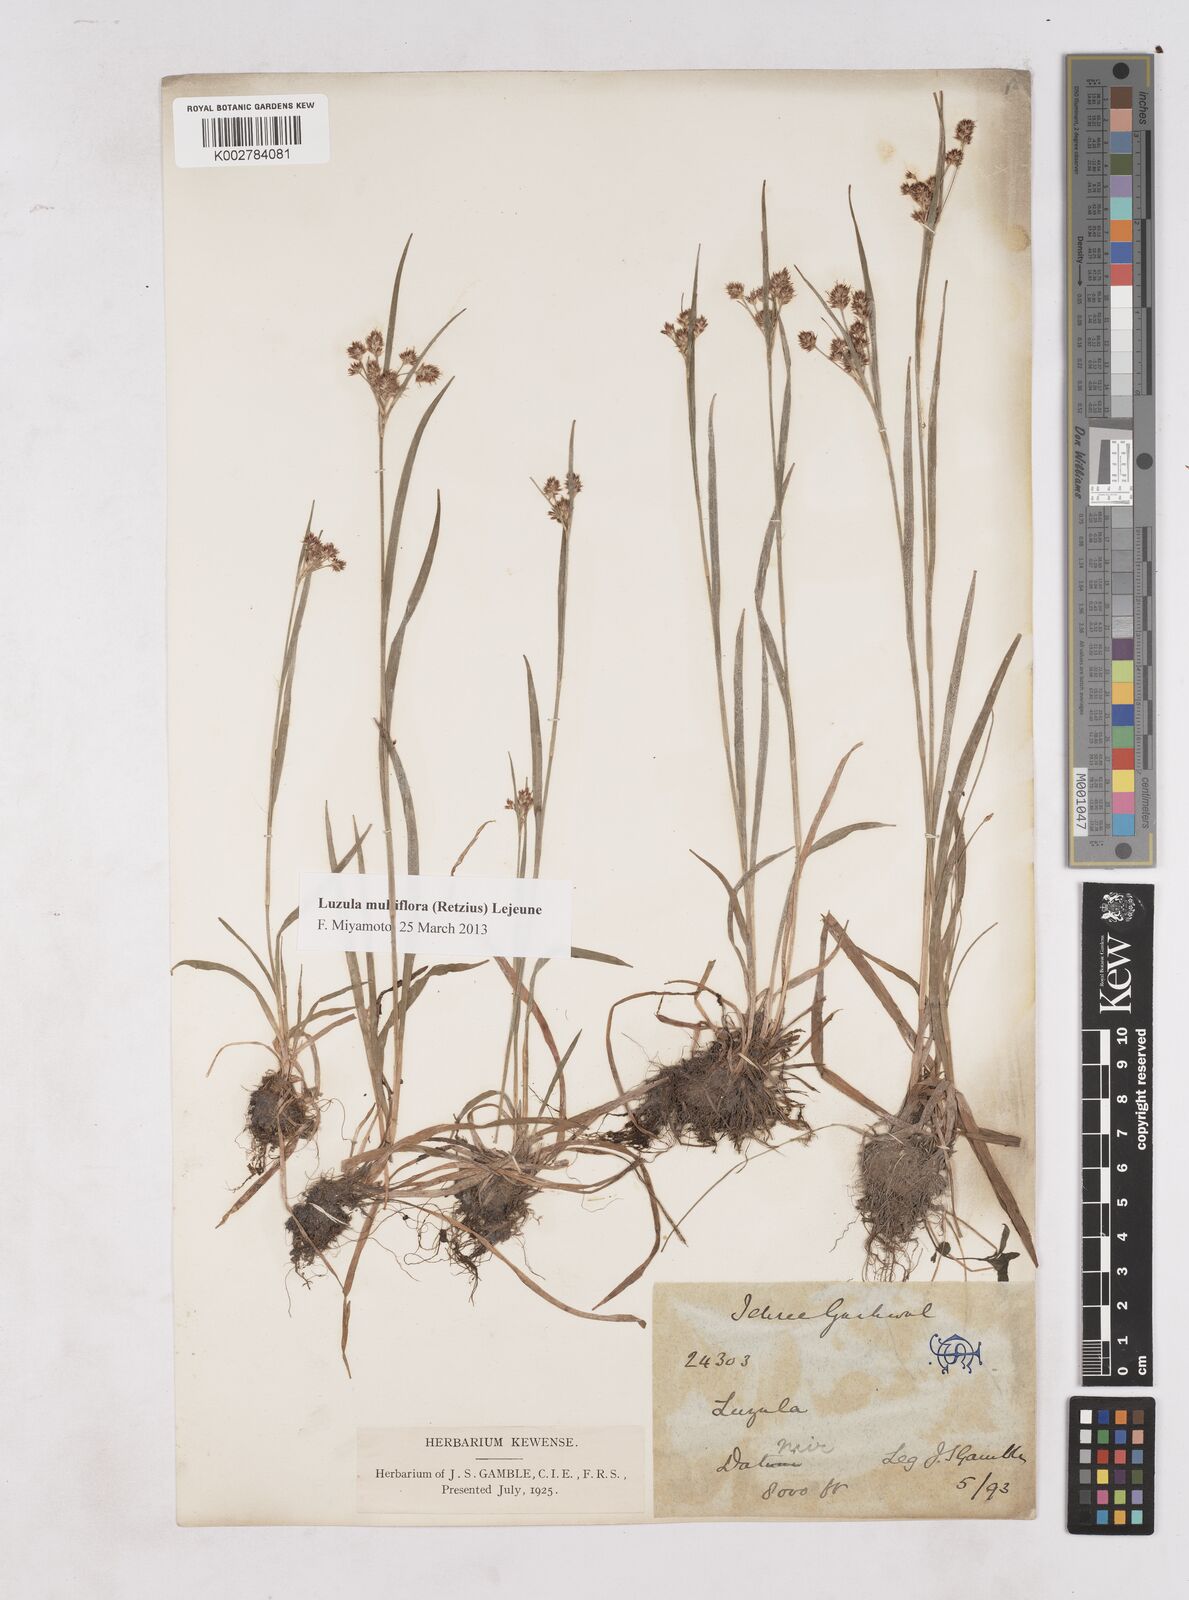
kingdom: Plantae
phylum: Tracheophyta
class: Liliopsida
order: Poales
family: Juncaceae
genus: Luzula
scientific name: Luzula campestris
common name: Field wood-rush
